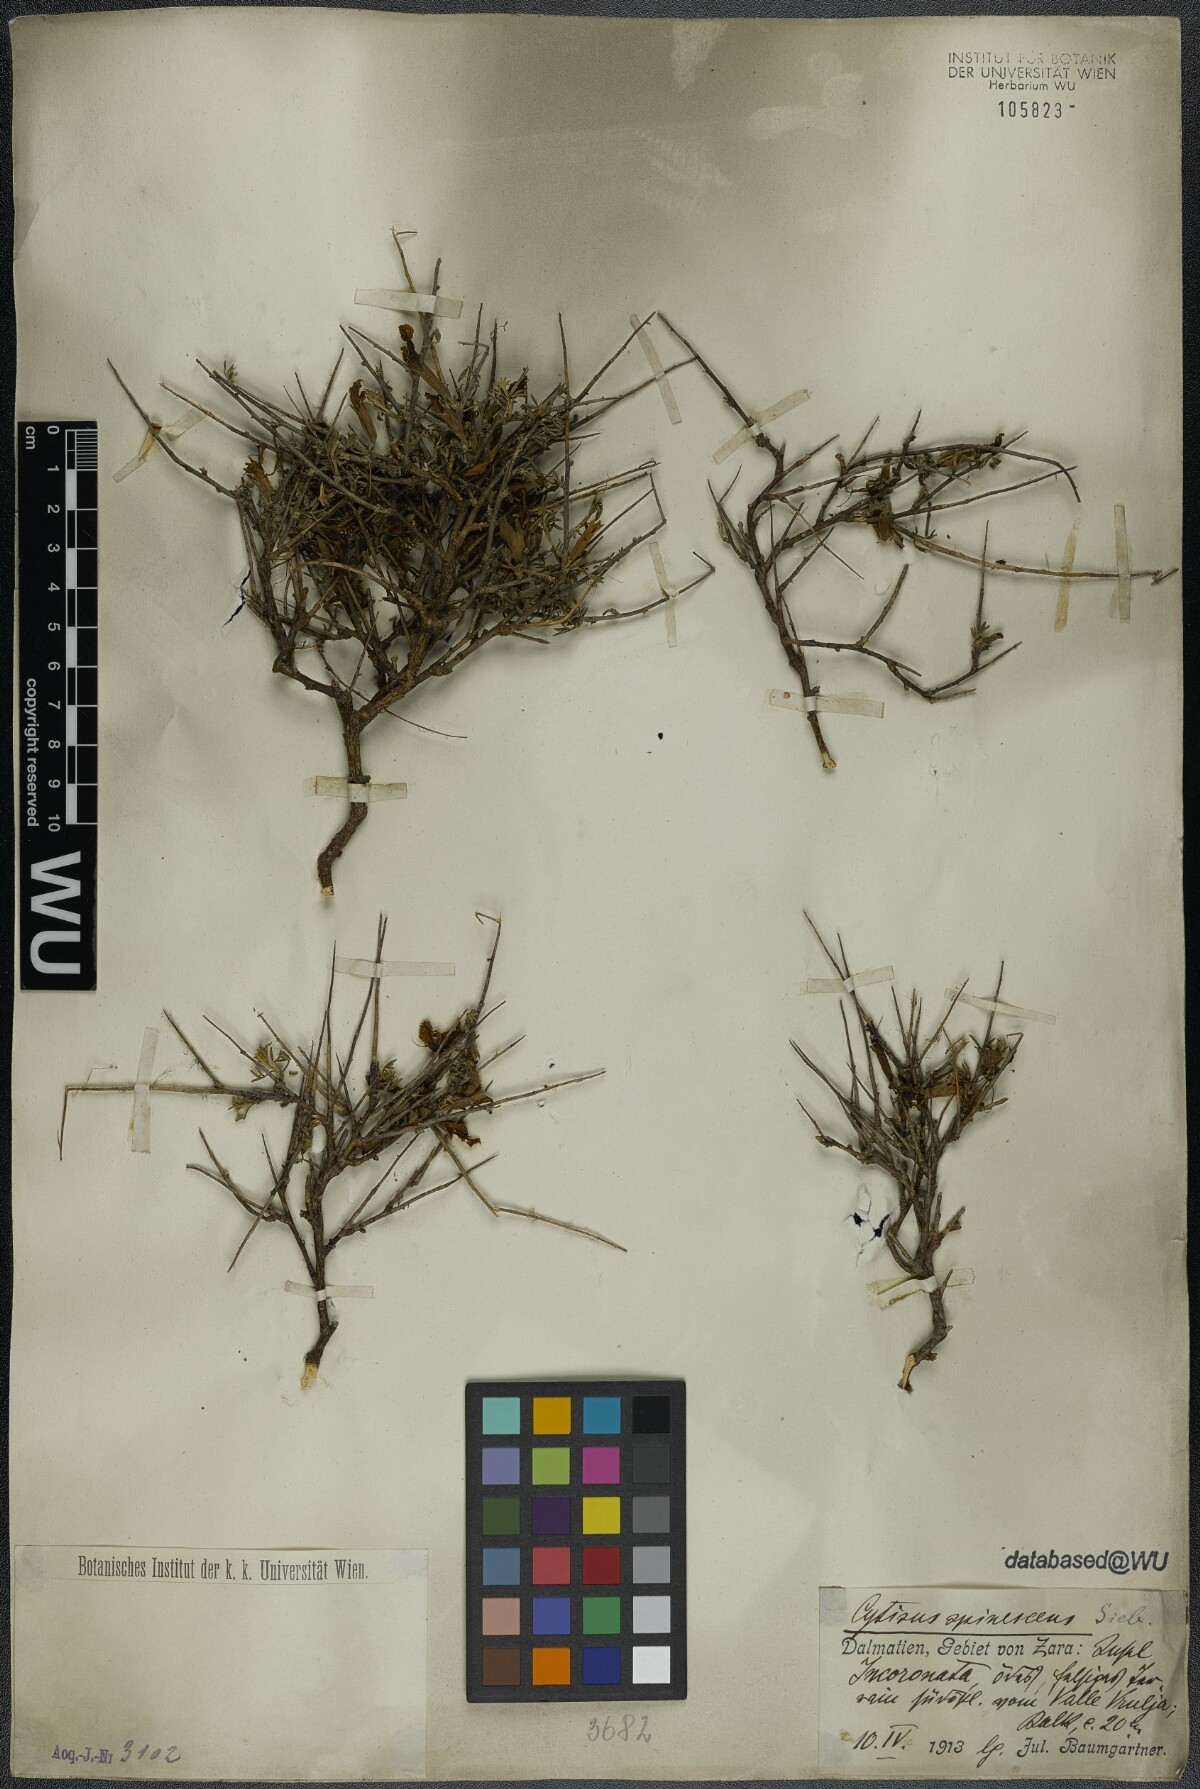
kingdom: Plantae
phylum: Tracheophyta
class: Magnoliopsida
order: Fabales
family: Fabaceae
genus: Chamaecytisus
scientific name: Chamaecytisus spinescens
